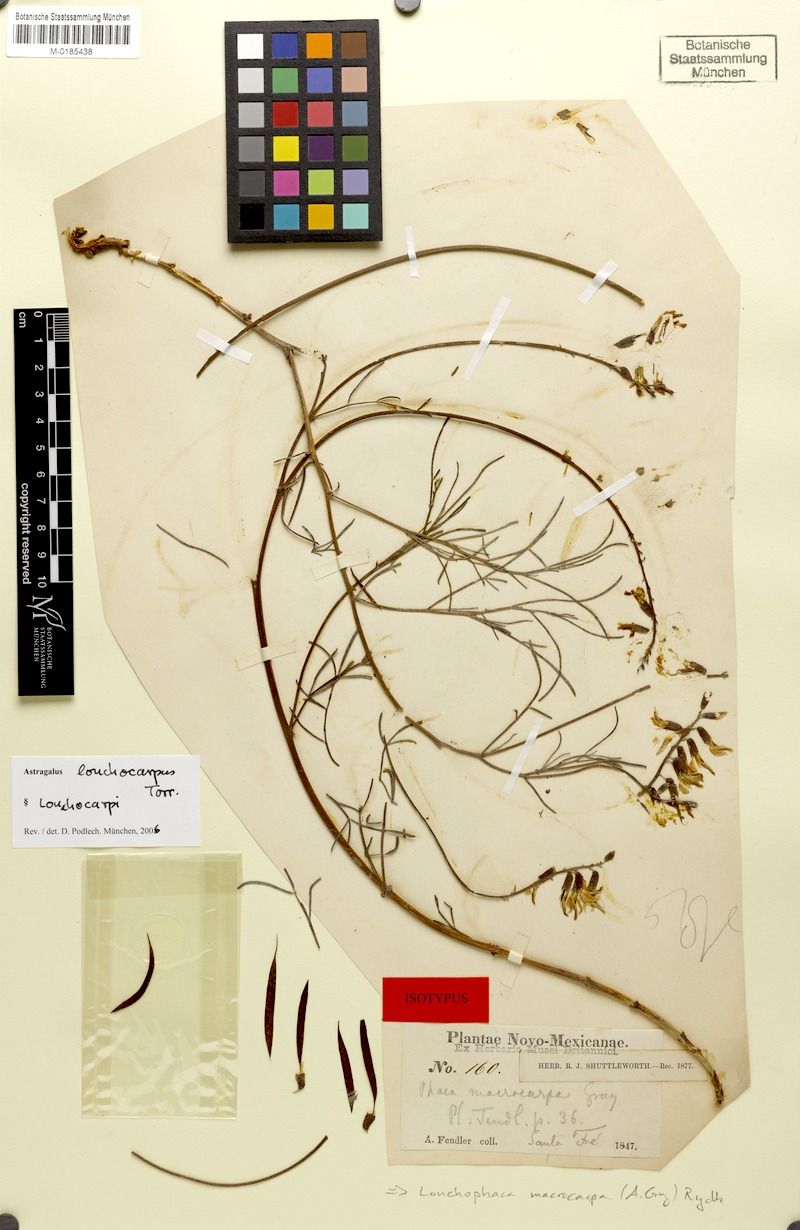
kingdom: Plantae
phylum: Tracheophyta
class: Magnoliopsida
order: Fabales
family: Fabaceae
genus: Astragalus
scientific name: Astragalus lonchocarpus
